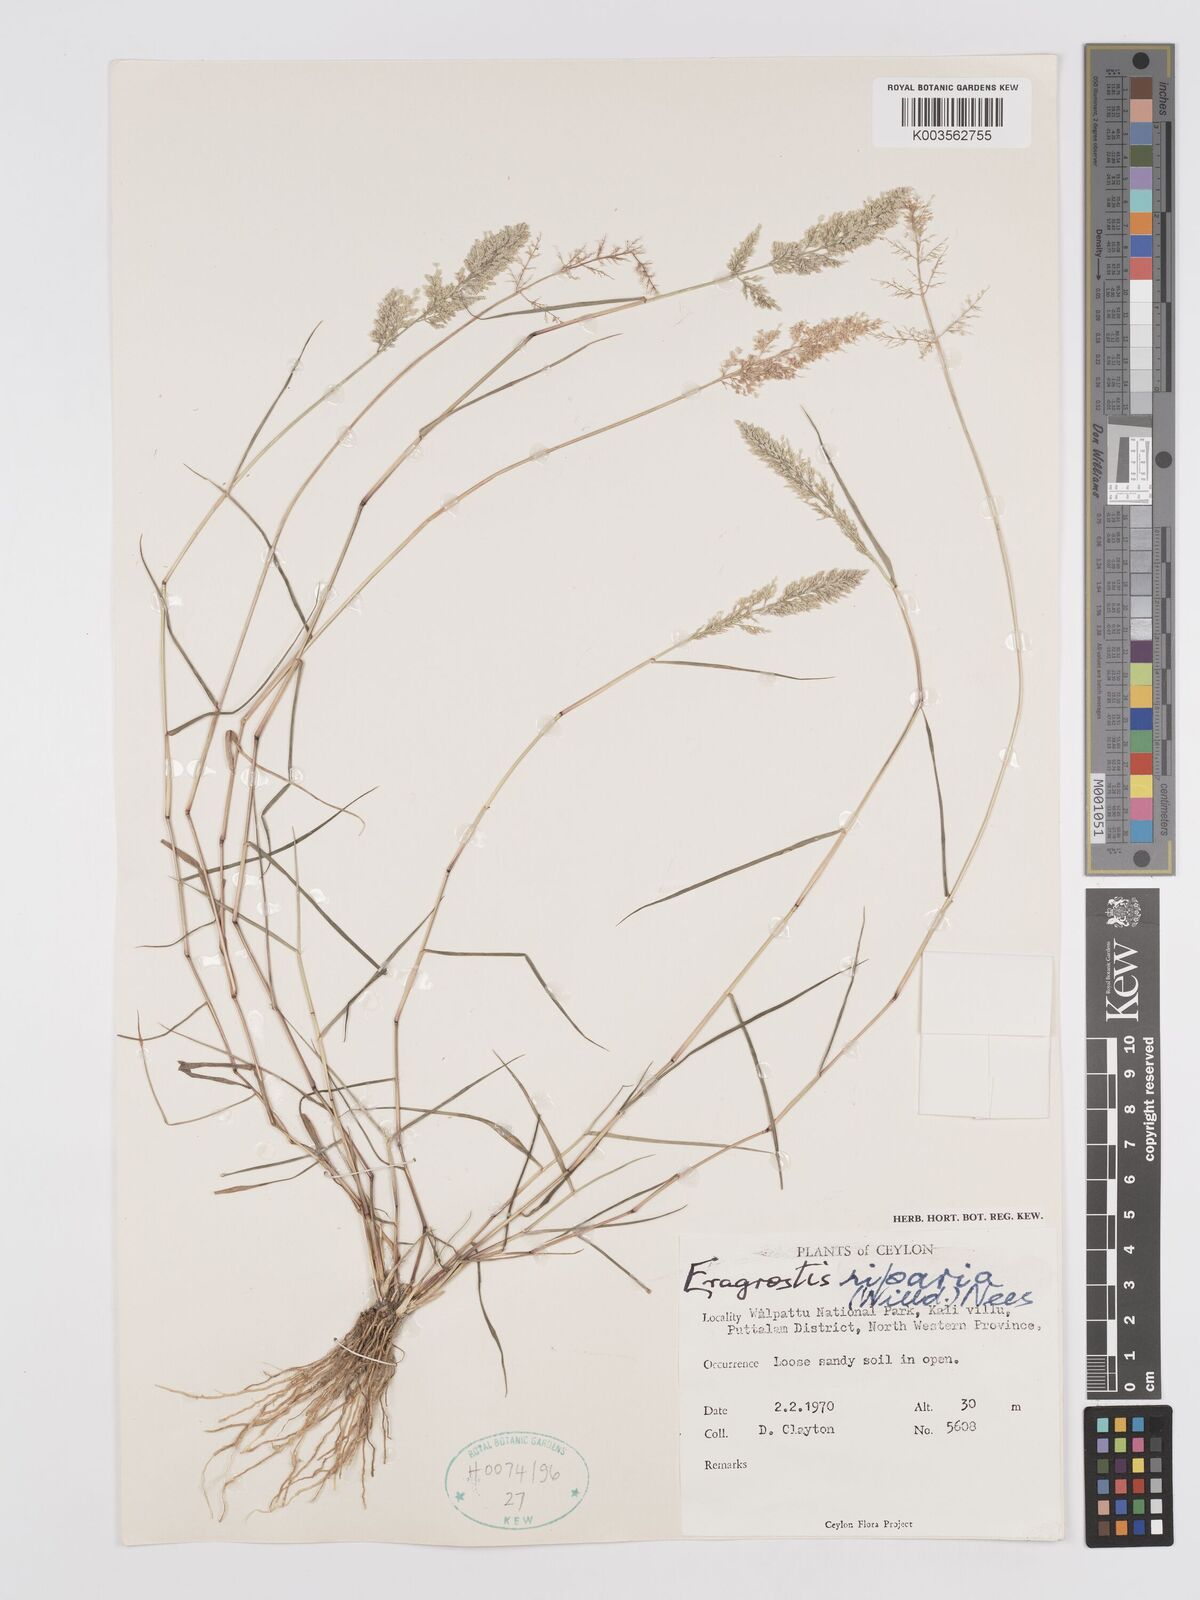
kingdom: Plantae
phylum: Tracheophyta
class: Liliopsida
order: Poales
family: Poaceae
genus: Eragrostis
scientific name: Eragrostis riparia
